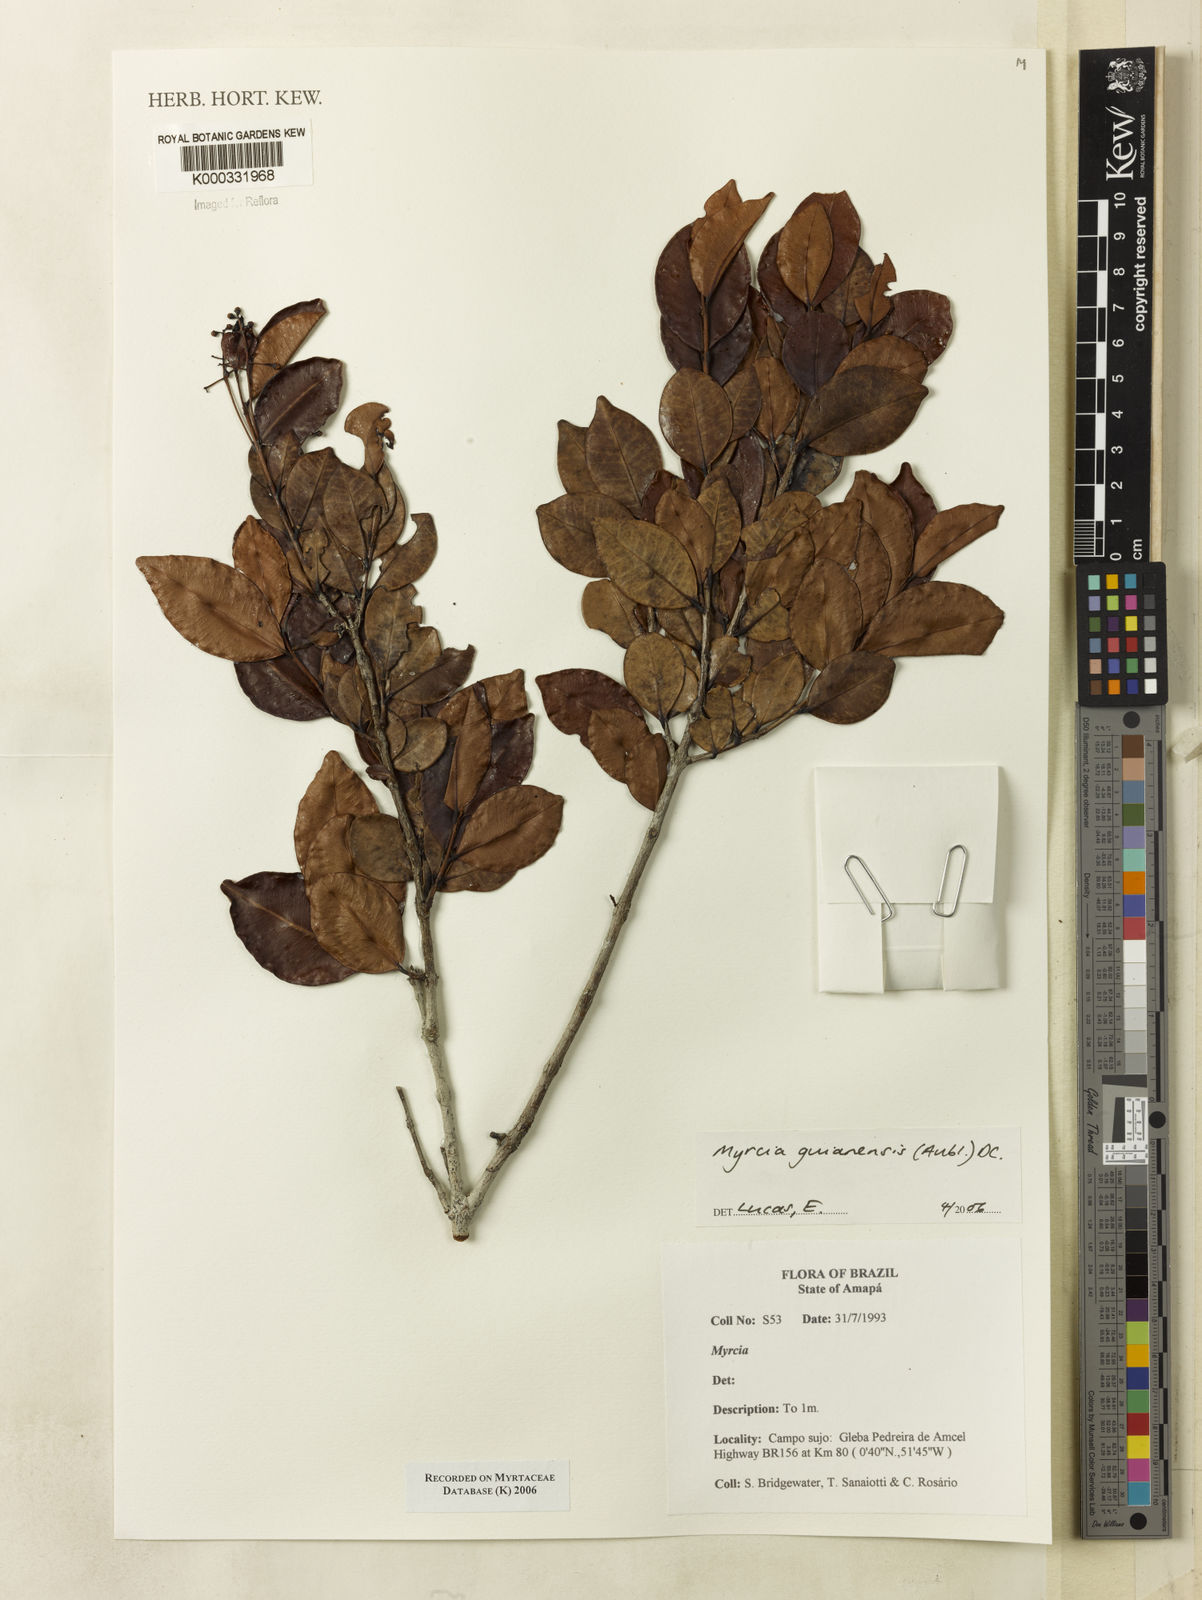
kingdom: Plantae
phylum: Tracheophyta
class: Magnoliopsida
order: Myrtales
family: Myrtaceae
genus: Myrcia
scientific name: Myrcia guianensis
